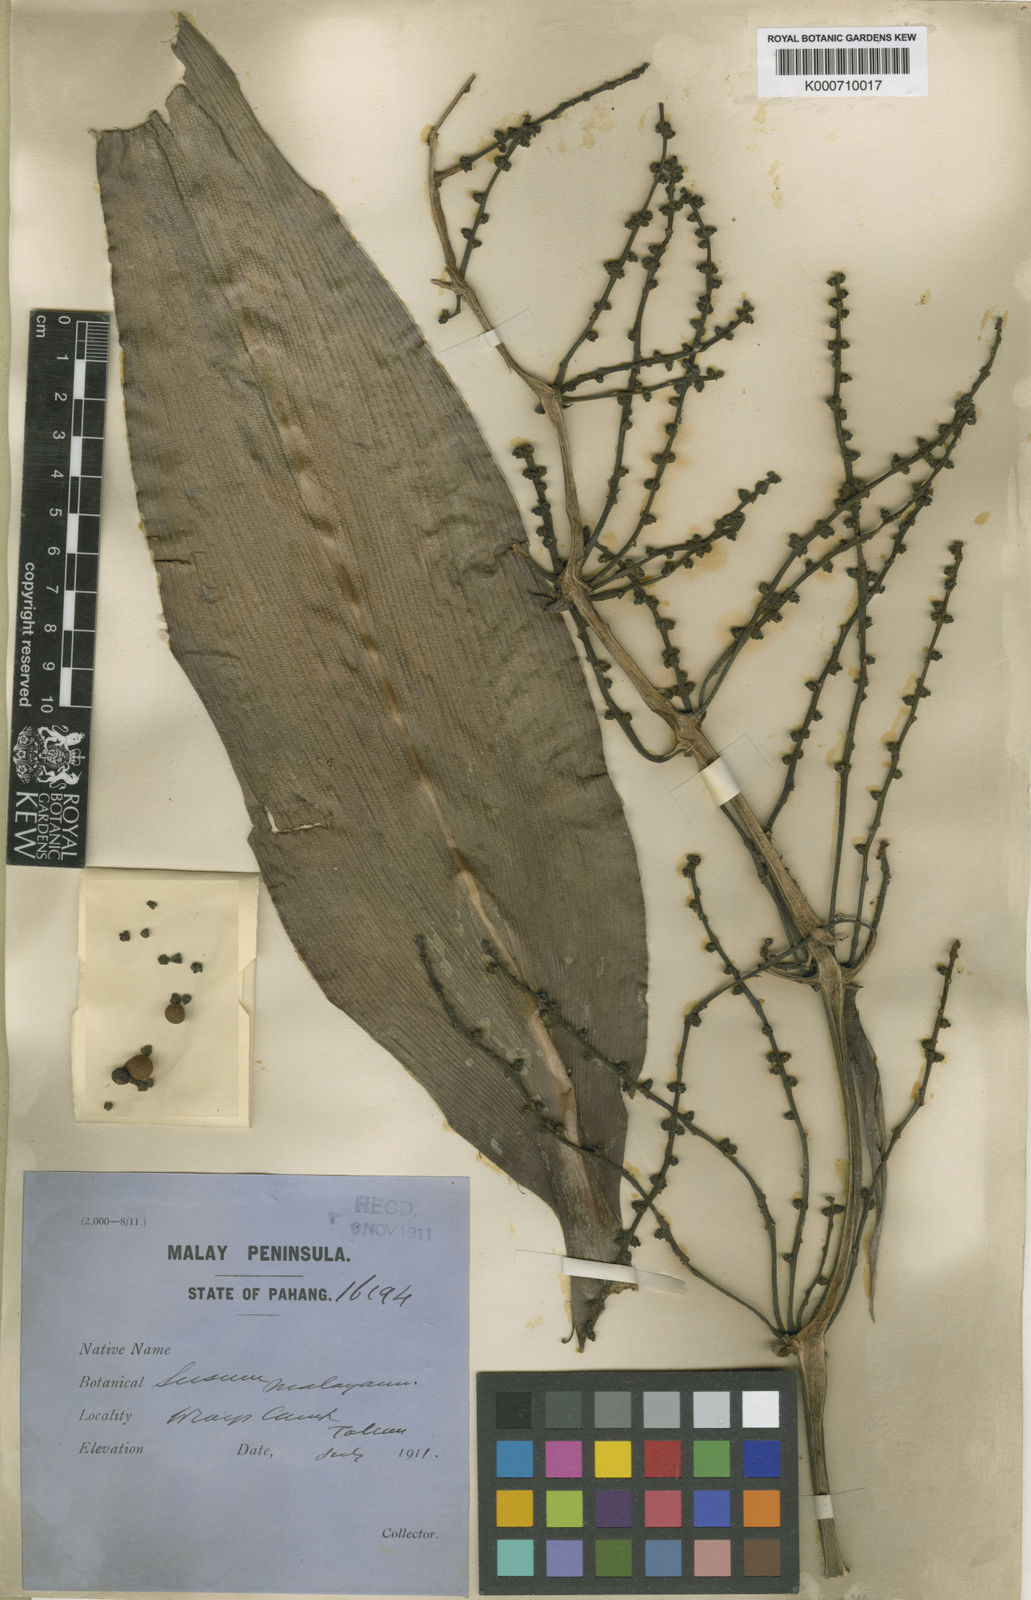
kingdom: Plantae
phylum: Tracheophyta
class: Liliopsida
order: Commelinales
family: Hanguanaceae
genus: Hanguana
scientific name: Hanguana malayana
